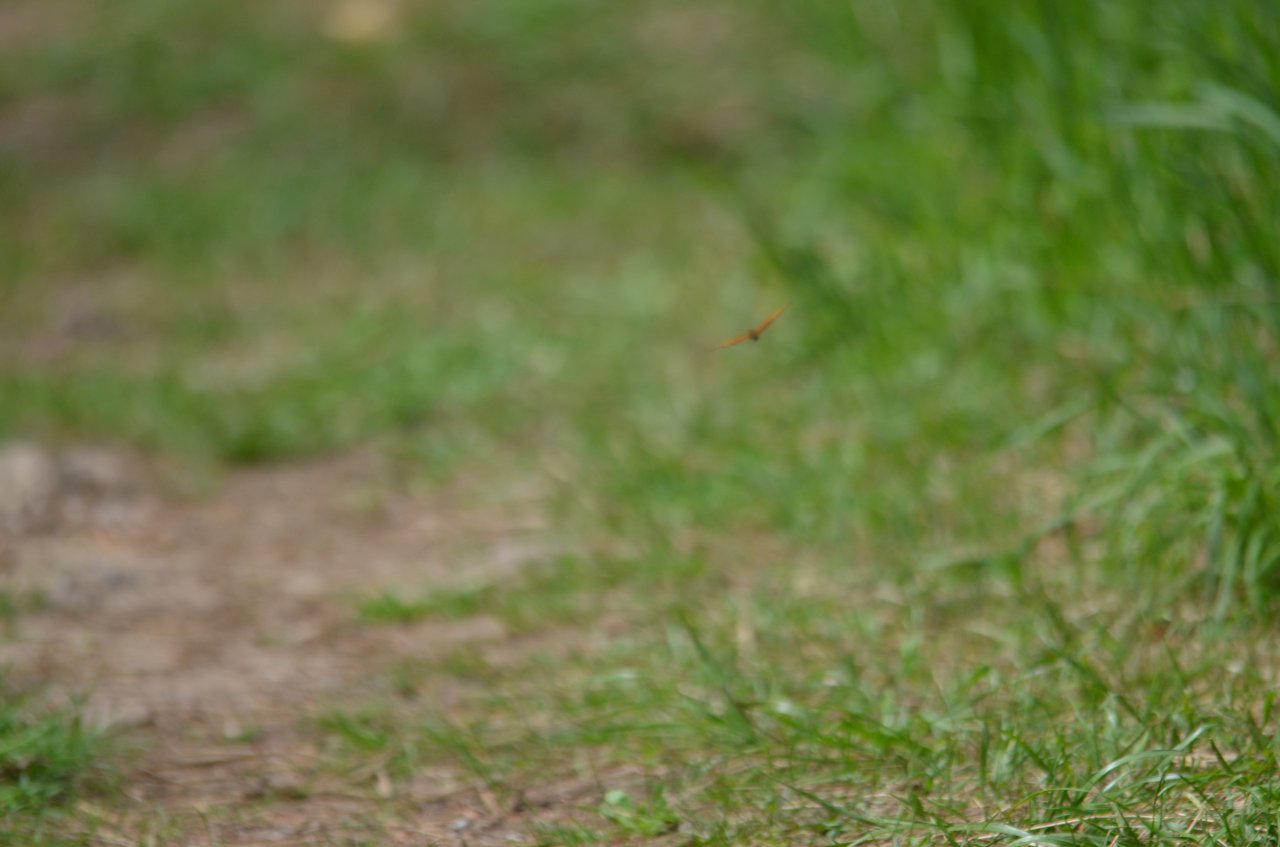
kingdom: Animalia
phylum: Arthropoda
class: Insecta
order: Lepidoptera
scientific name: Lepidoptera
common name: Butterflies
